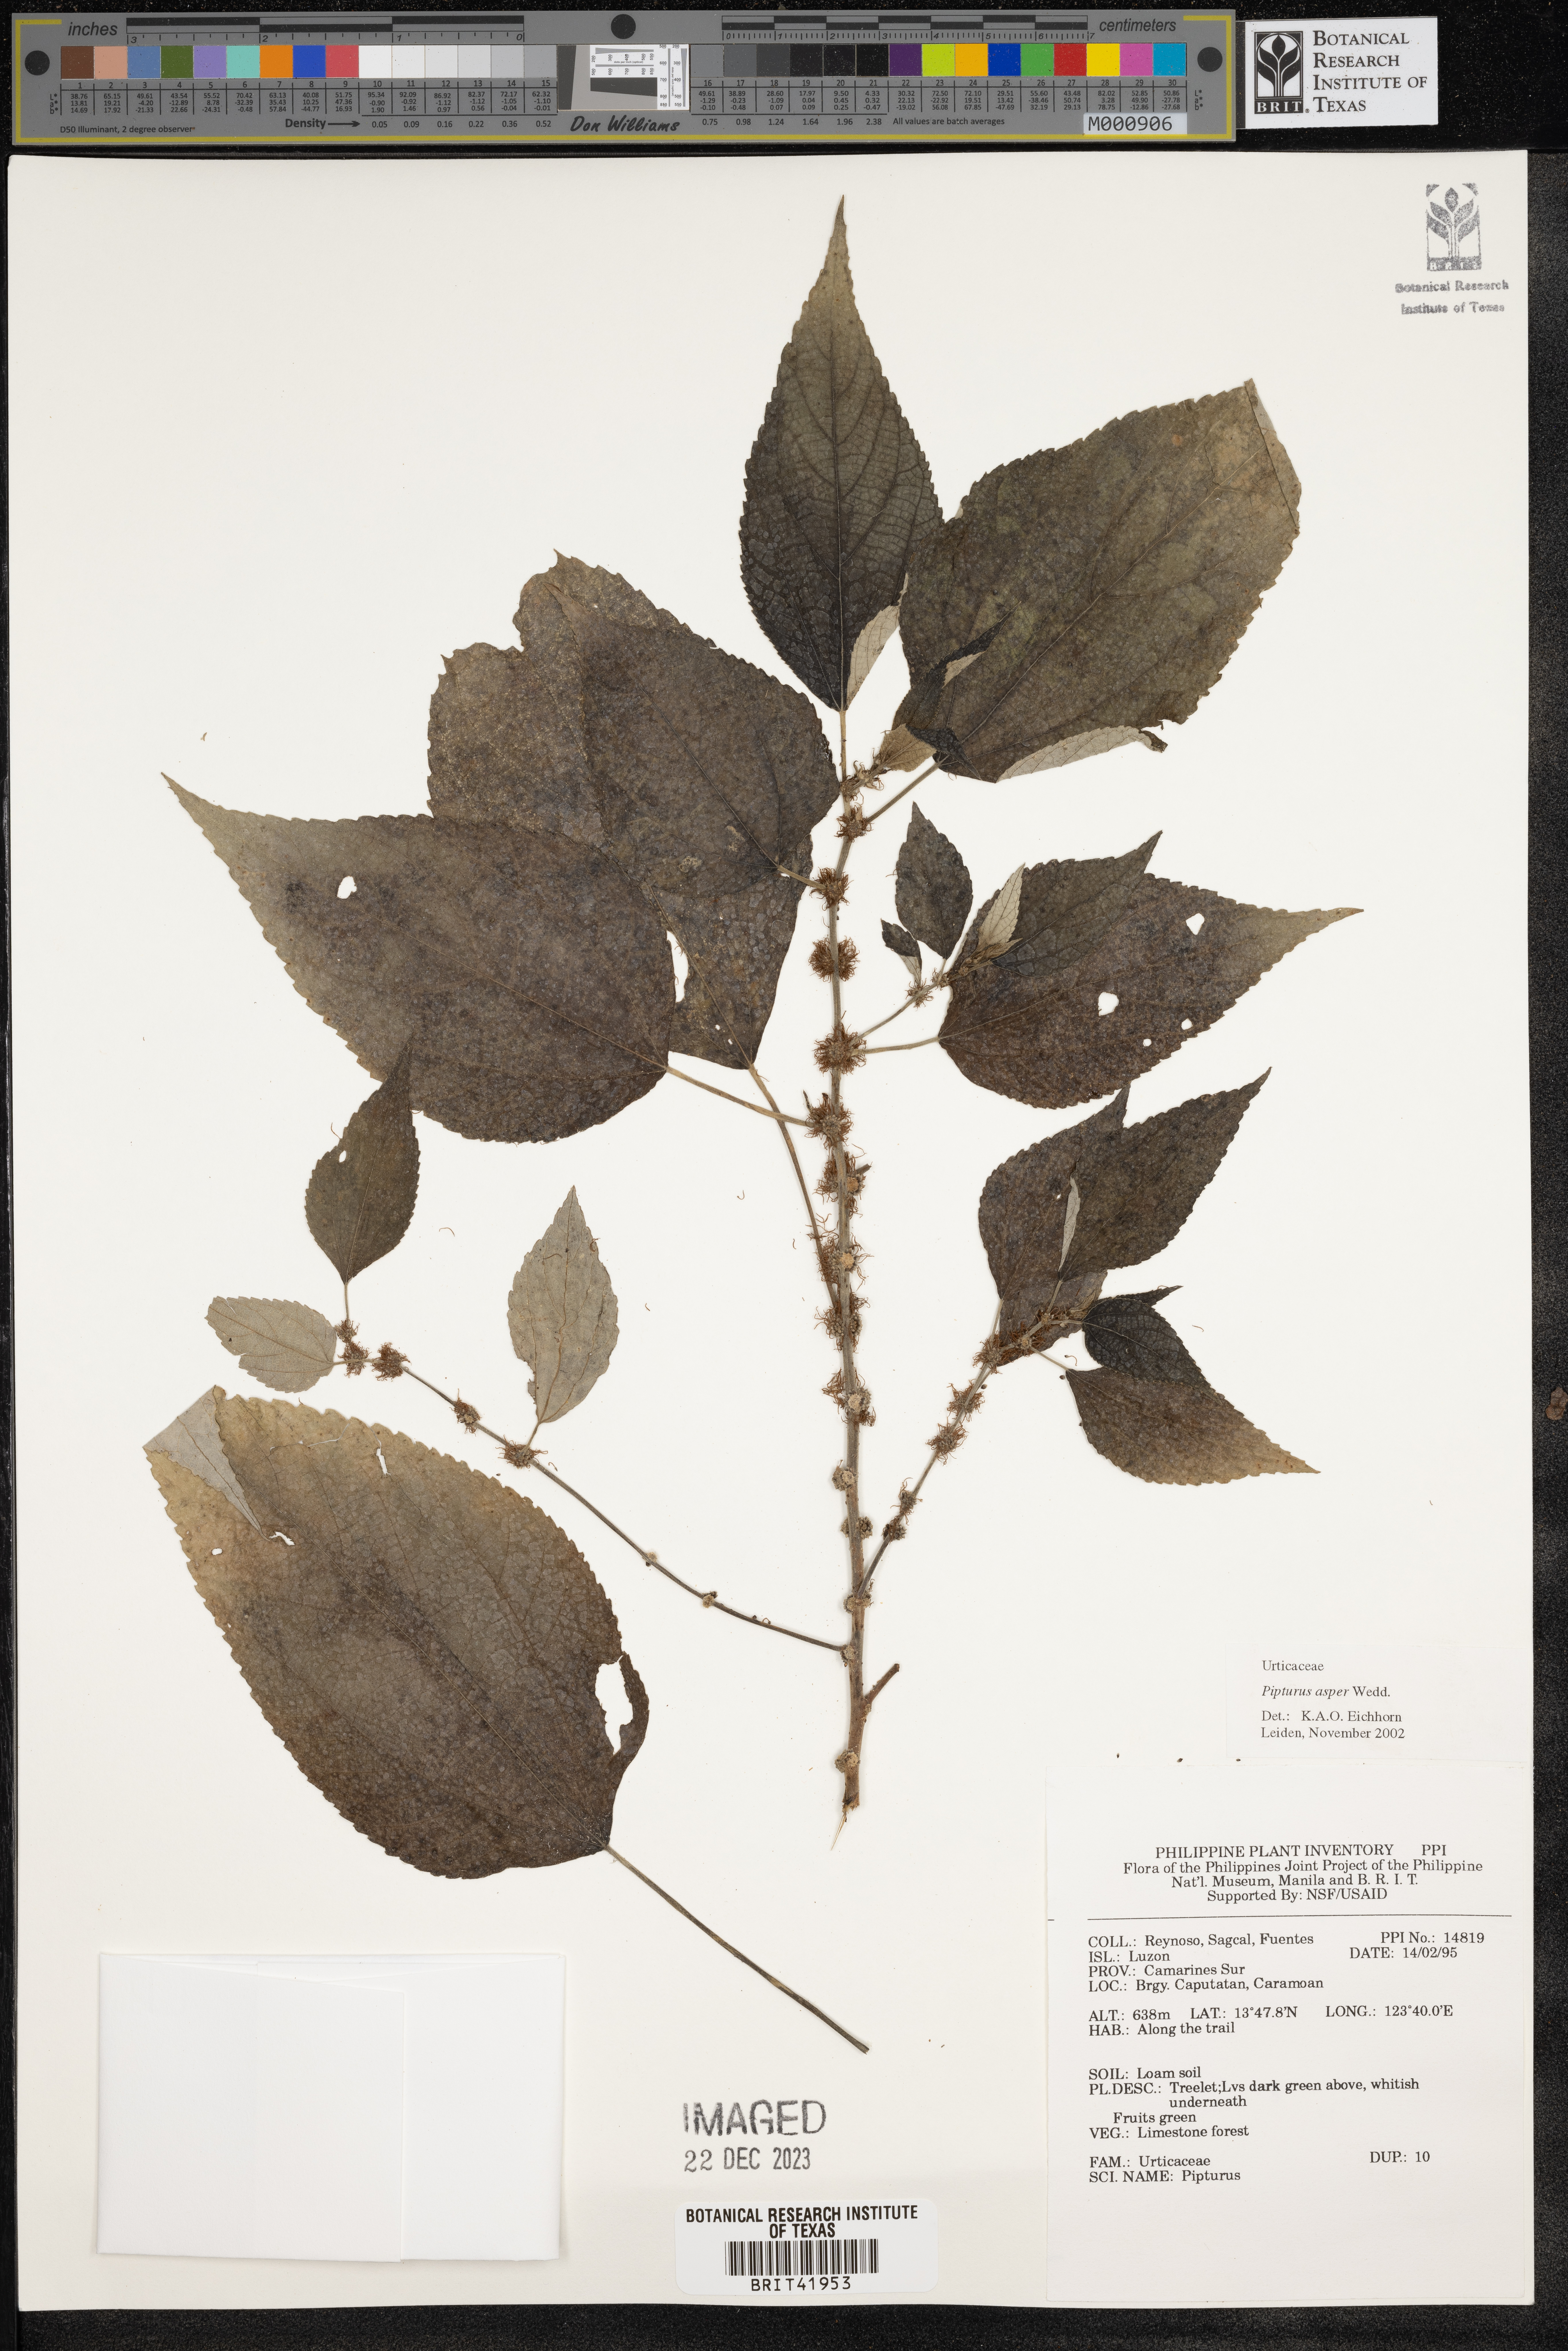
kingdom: Plantae
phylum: Tracheophyta
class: Magnoliopsida
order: Rosales
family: Urticaceae
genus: Pipturus
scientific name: Pipturus arborescens
